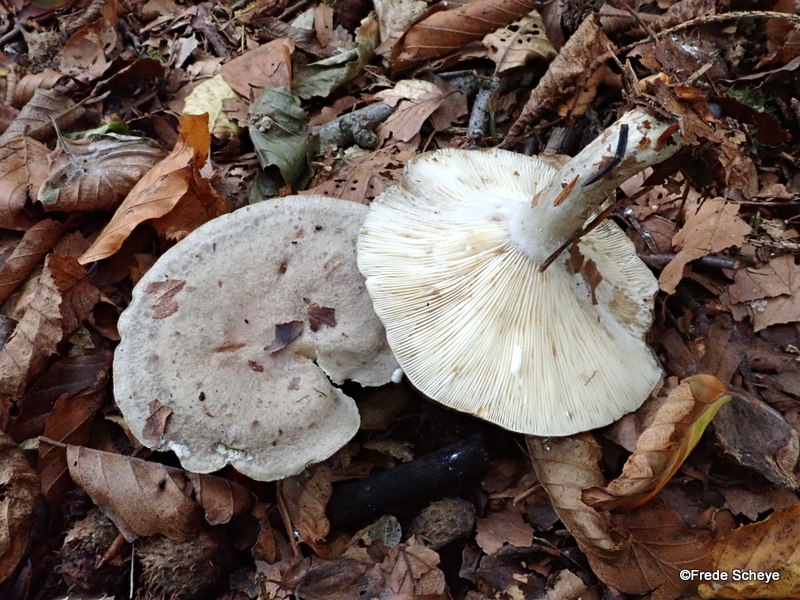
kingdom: Fungi
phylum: Basidiomycota
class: Agaricomycetes
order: Russulales
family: Russulaceae
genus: Lactarius
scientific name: Lactarius blennius
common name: dråbeplettet mælkehat
